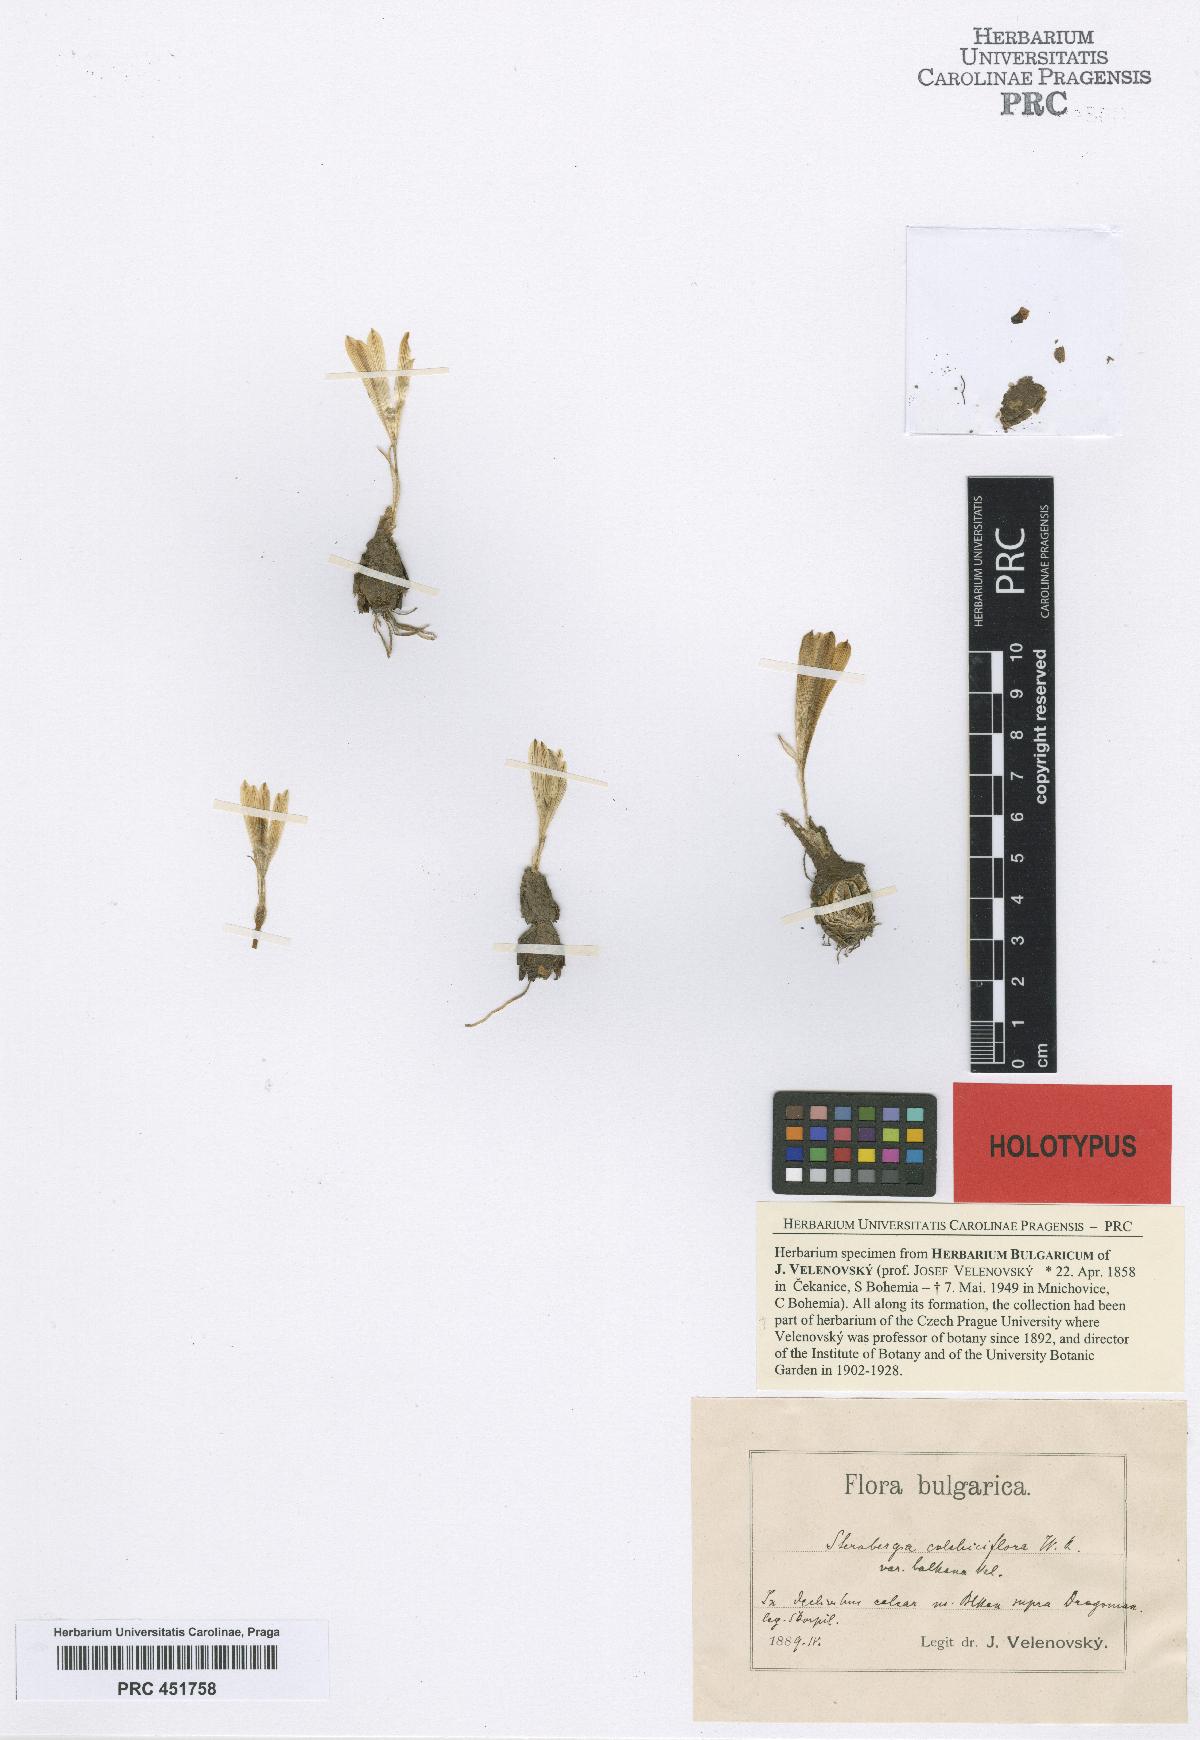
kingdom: Plantae
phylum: Tracheophyta
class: Liliopsida
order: Asparagales
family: Amaryllidaceae
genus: Sternbergia
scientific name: Sternbergia colchiciflora
